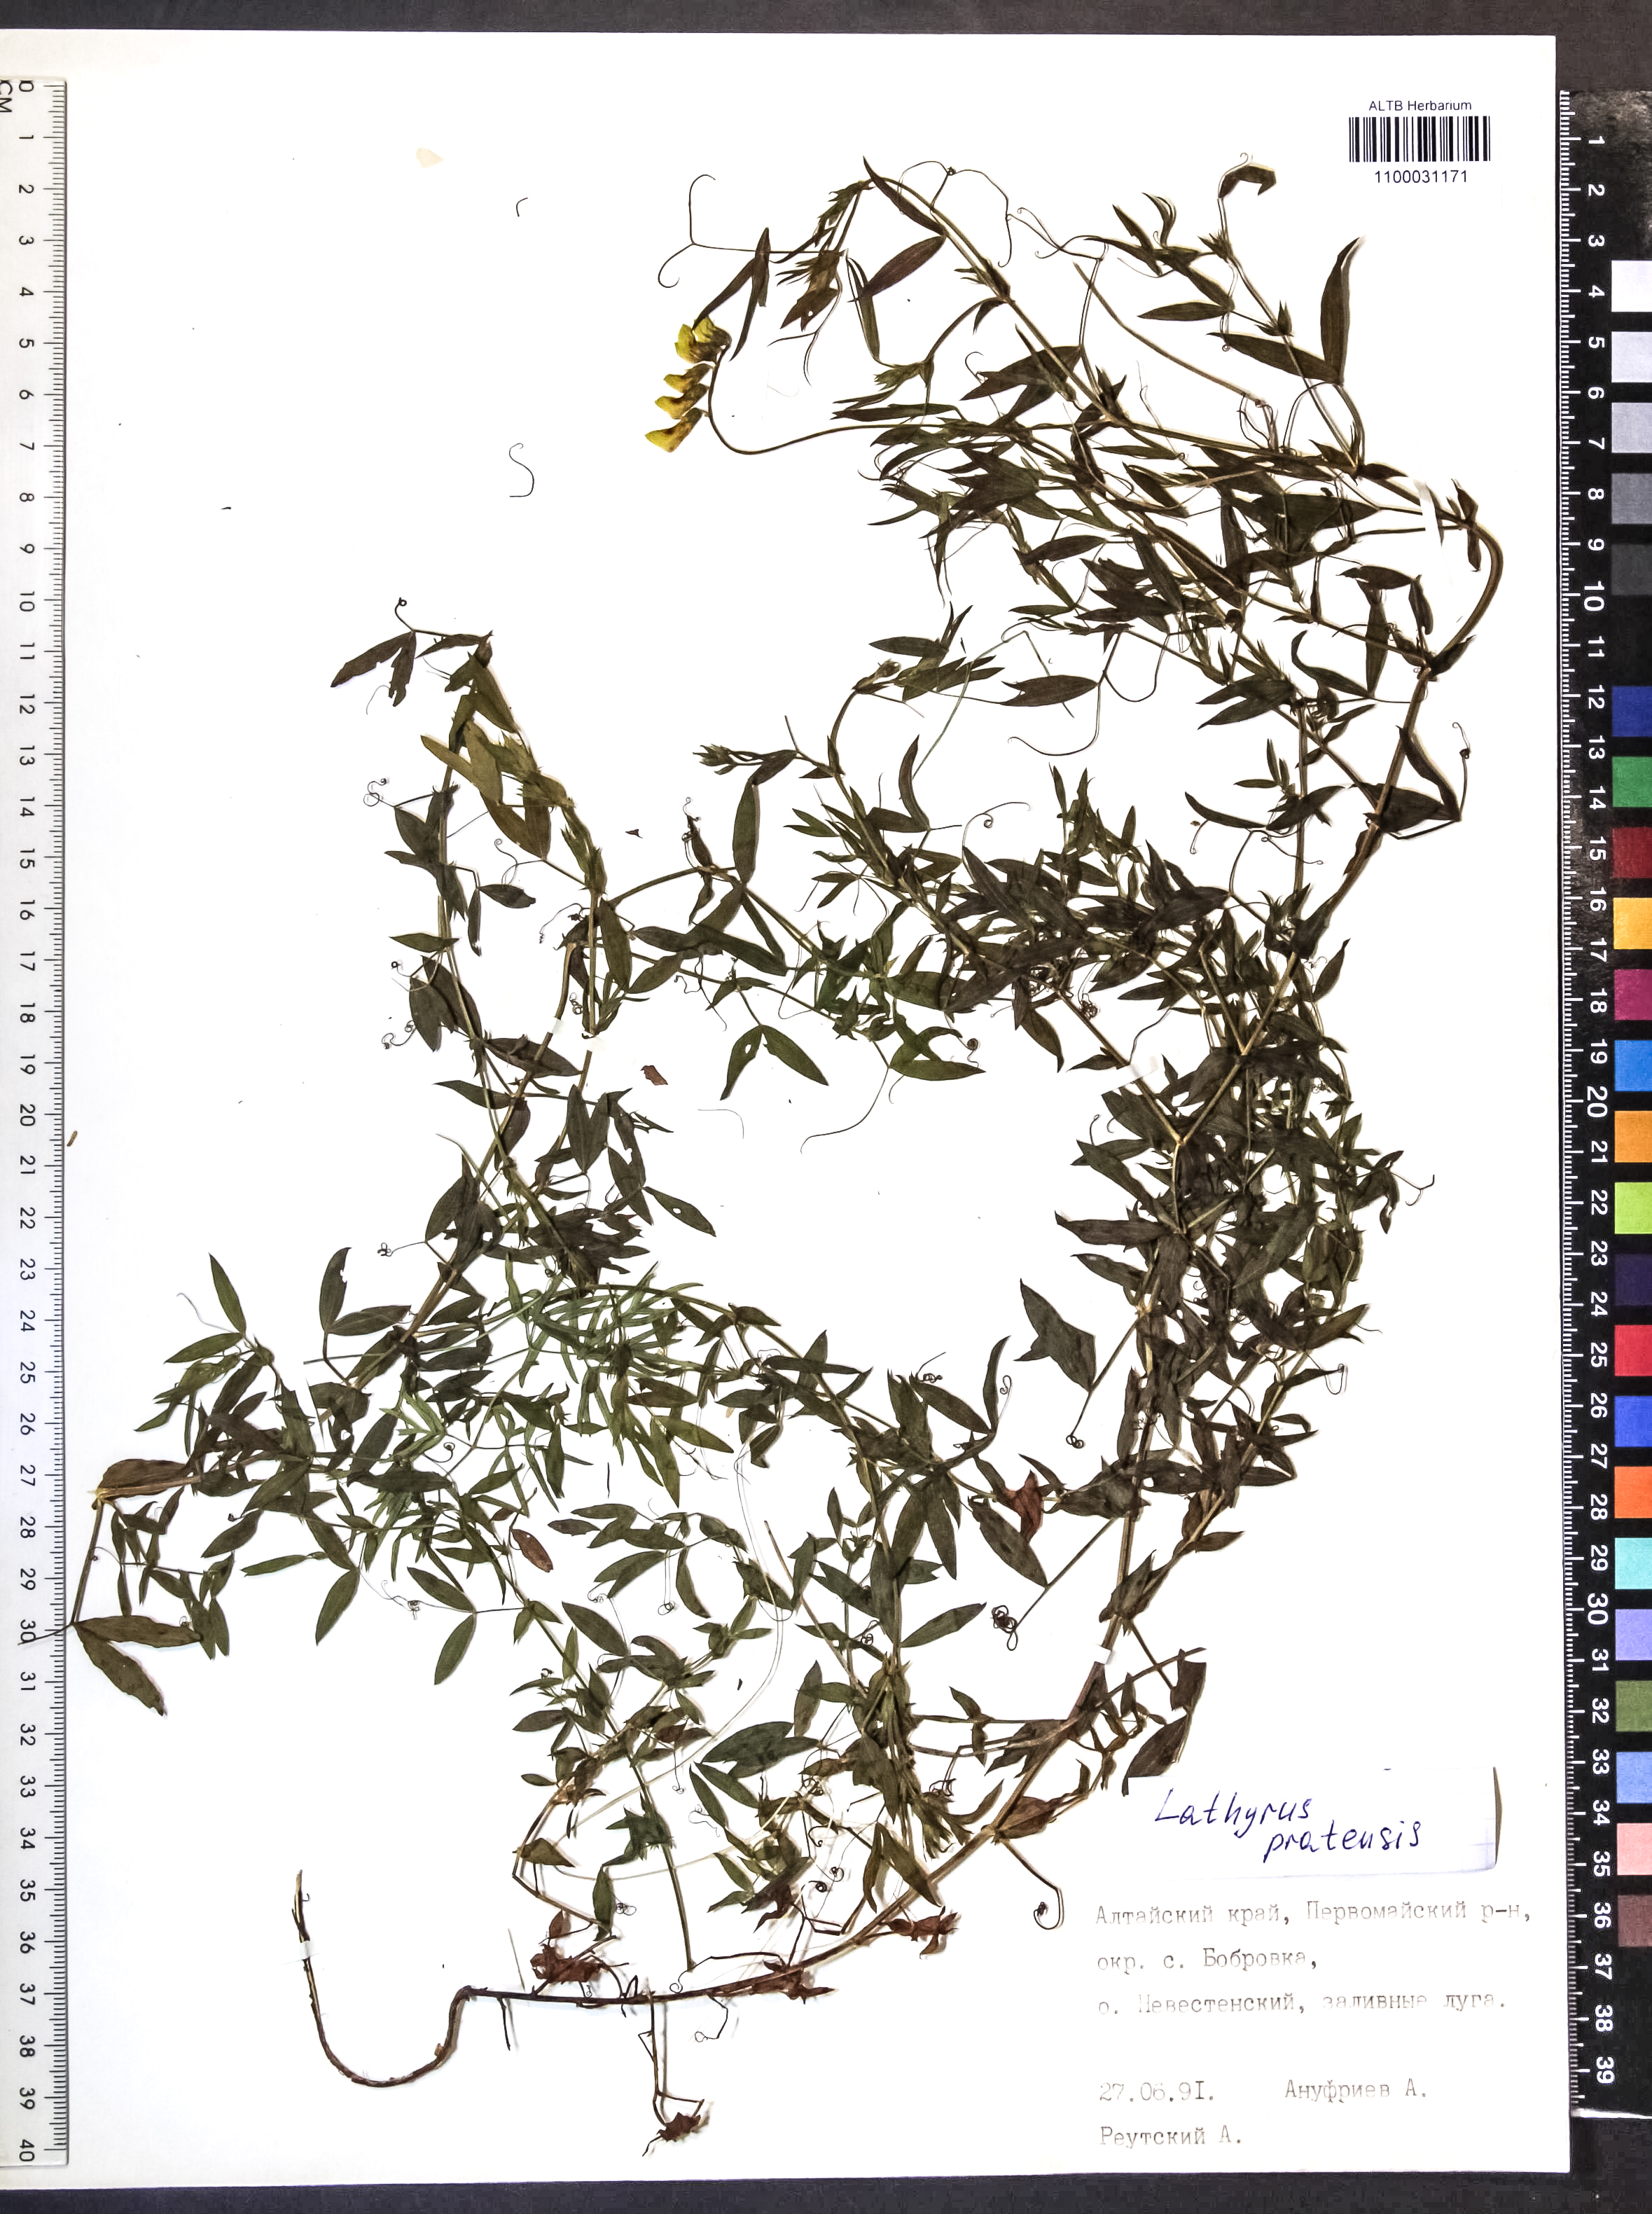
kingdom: Plantae
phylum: Tracheophyta
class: Magnoliopsida
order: Fabales
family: Fabaceae
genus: Lathyrus
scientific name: Lathyrus pratensis
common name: Meadow vetchling
